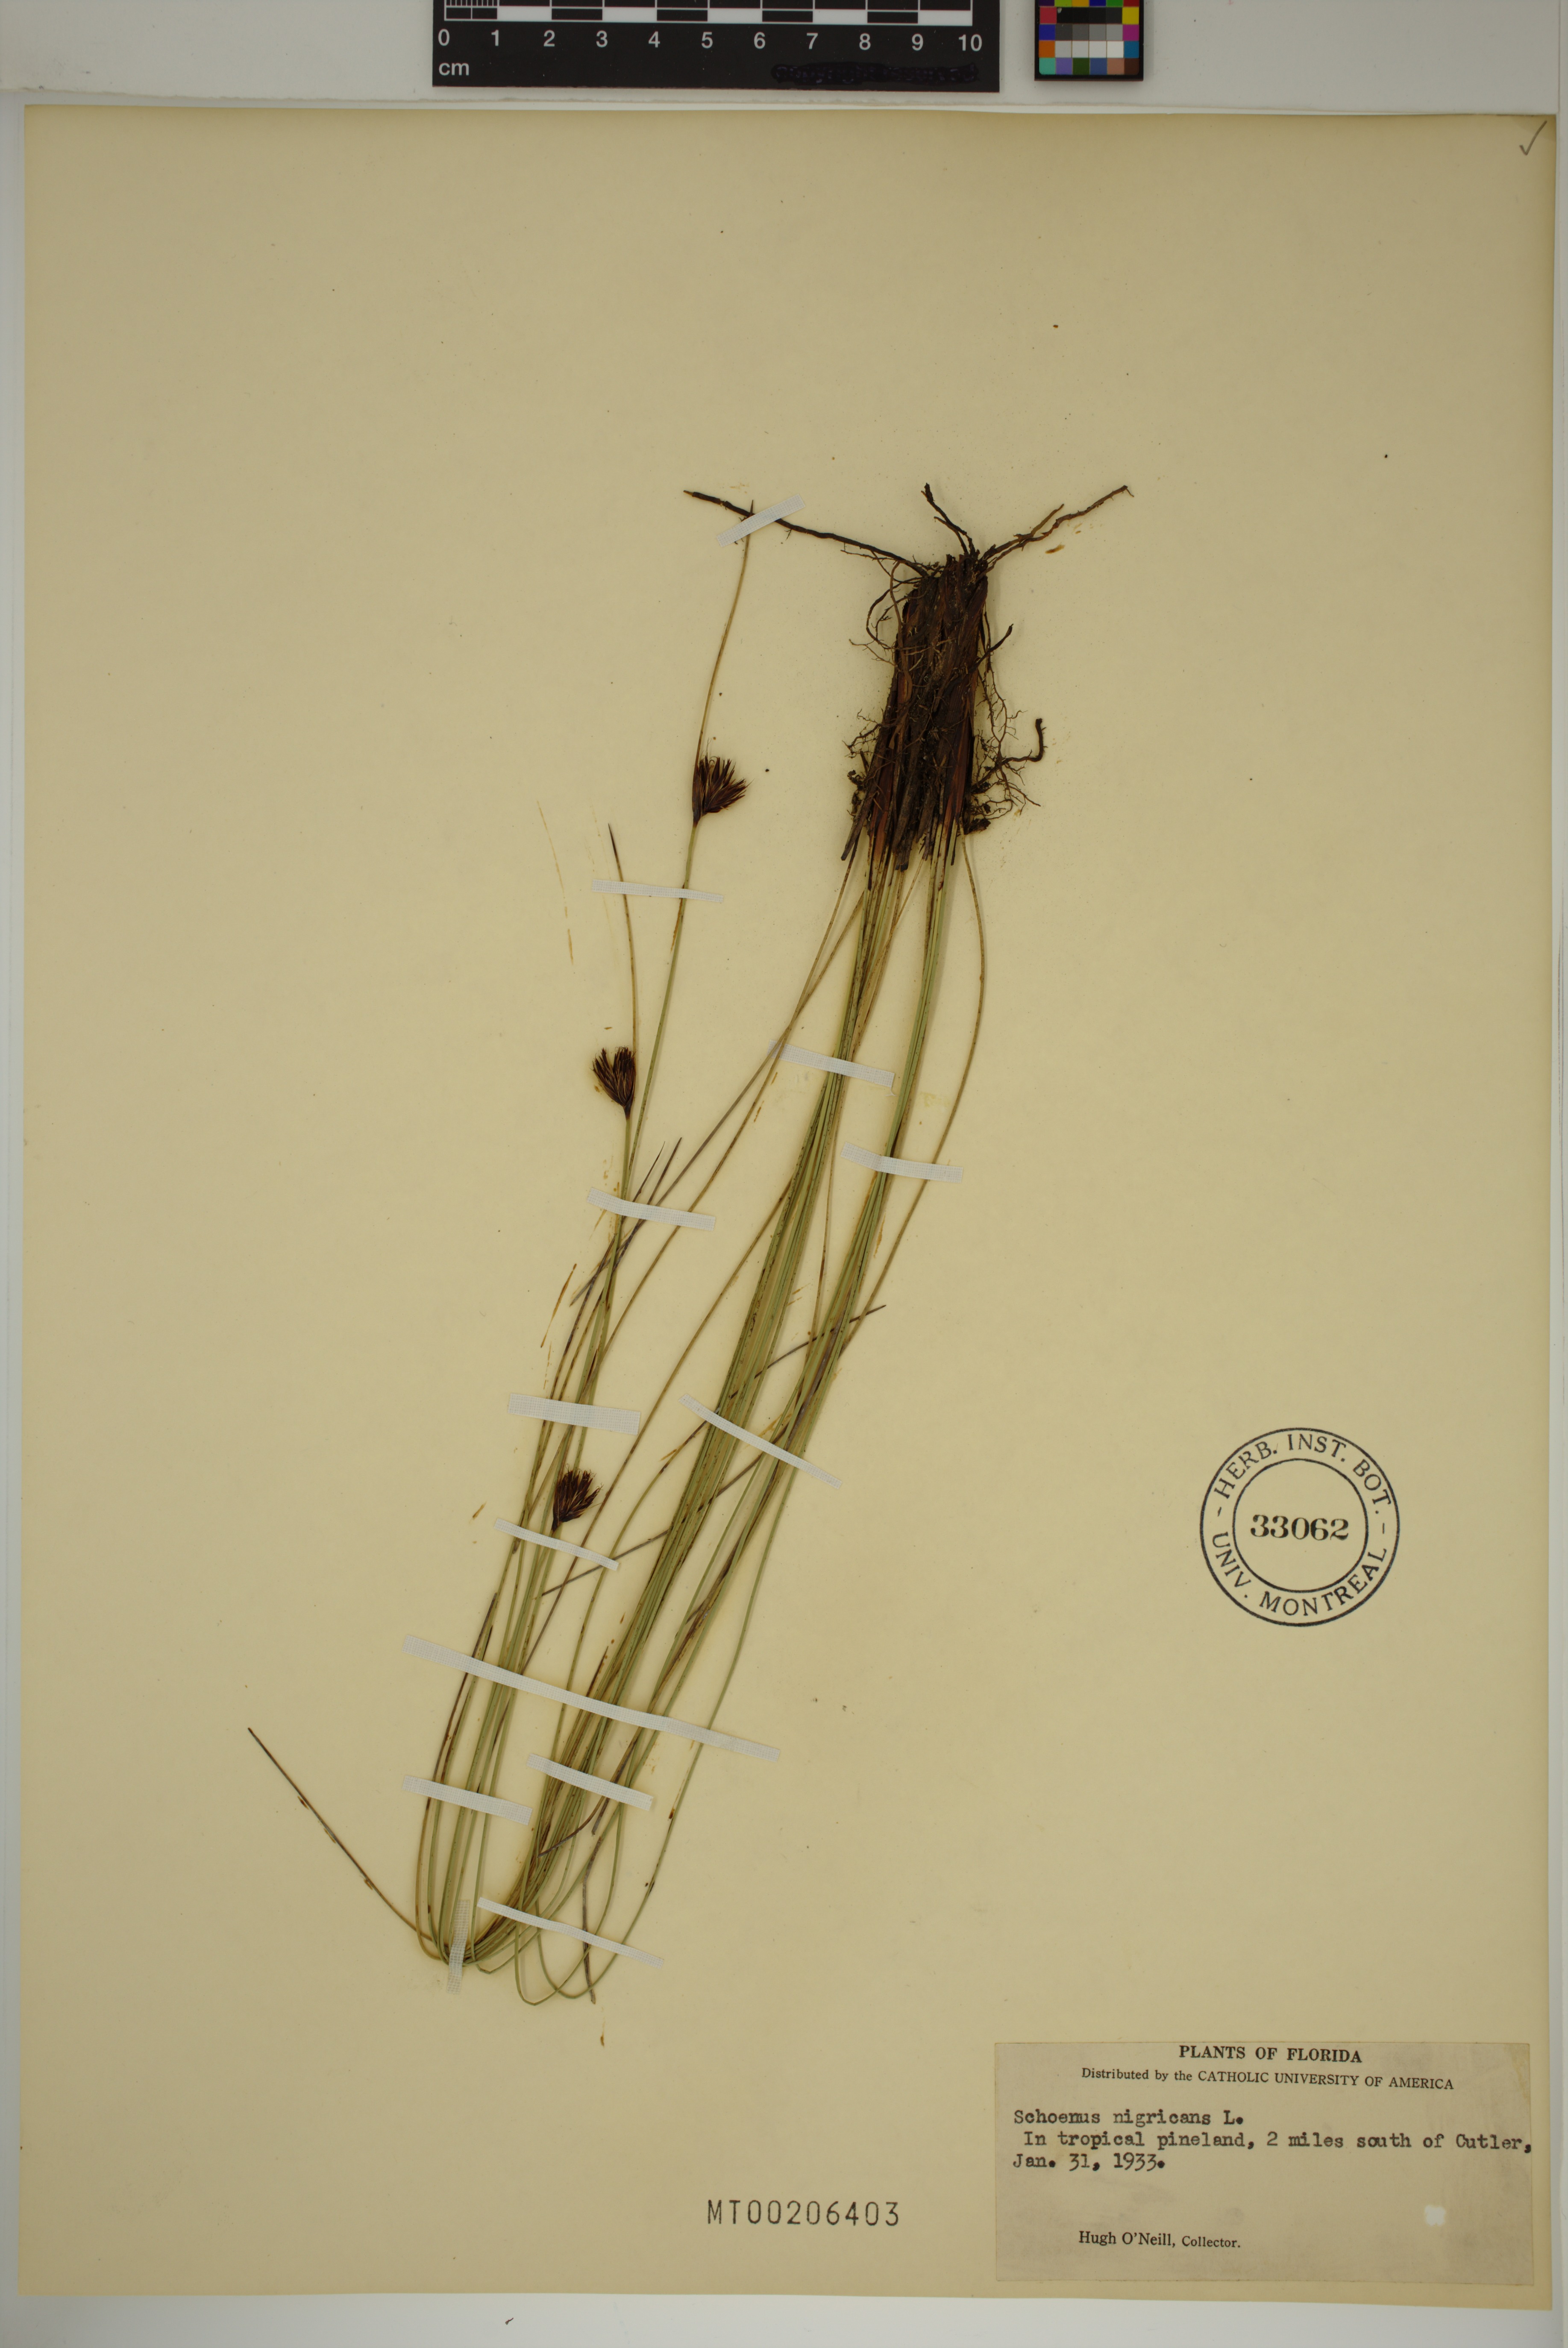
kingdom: Plantae
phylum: Tracheophyta
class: Liliopsida
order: Poales
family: Cyperaceae
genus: Schoenus
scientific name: Schoenus nigricans
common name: Black bog-rush
